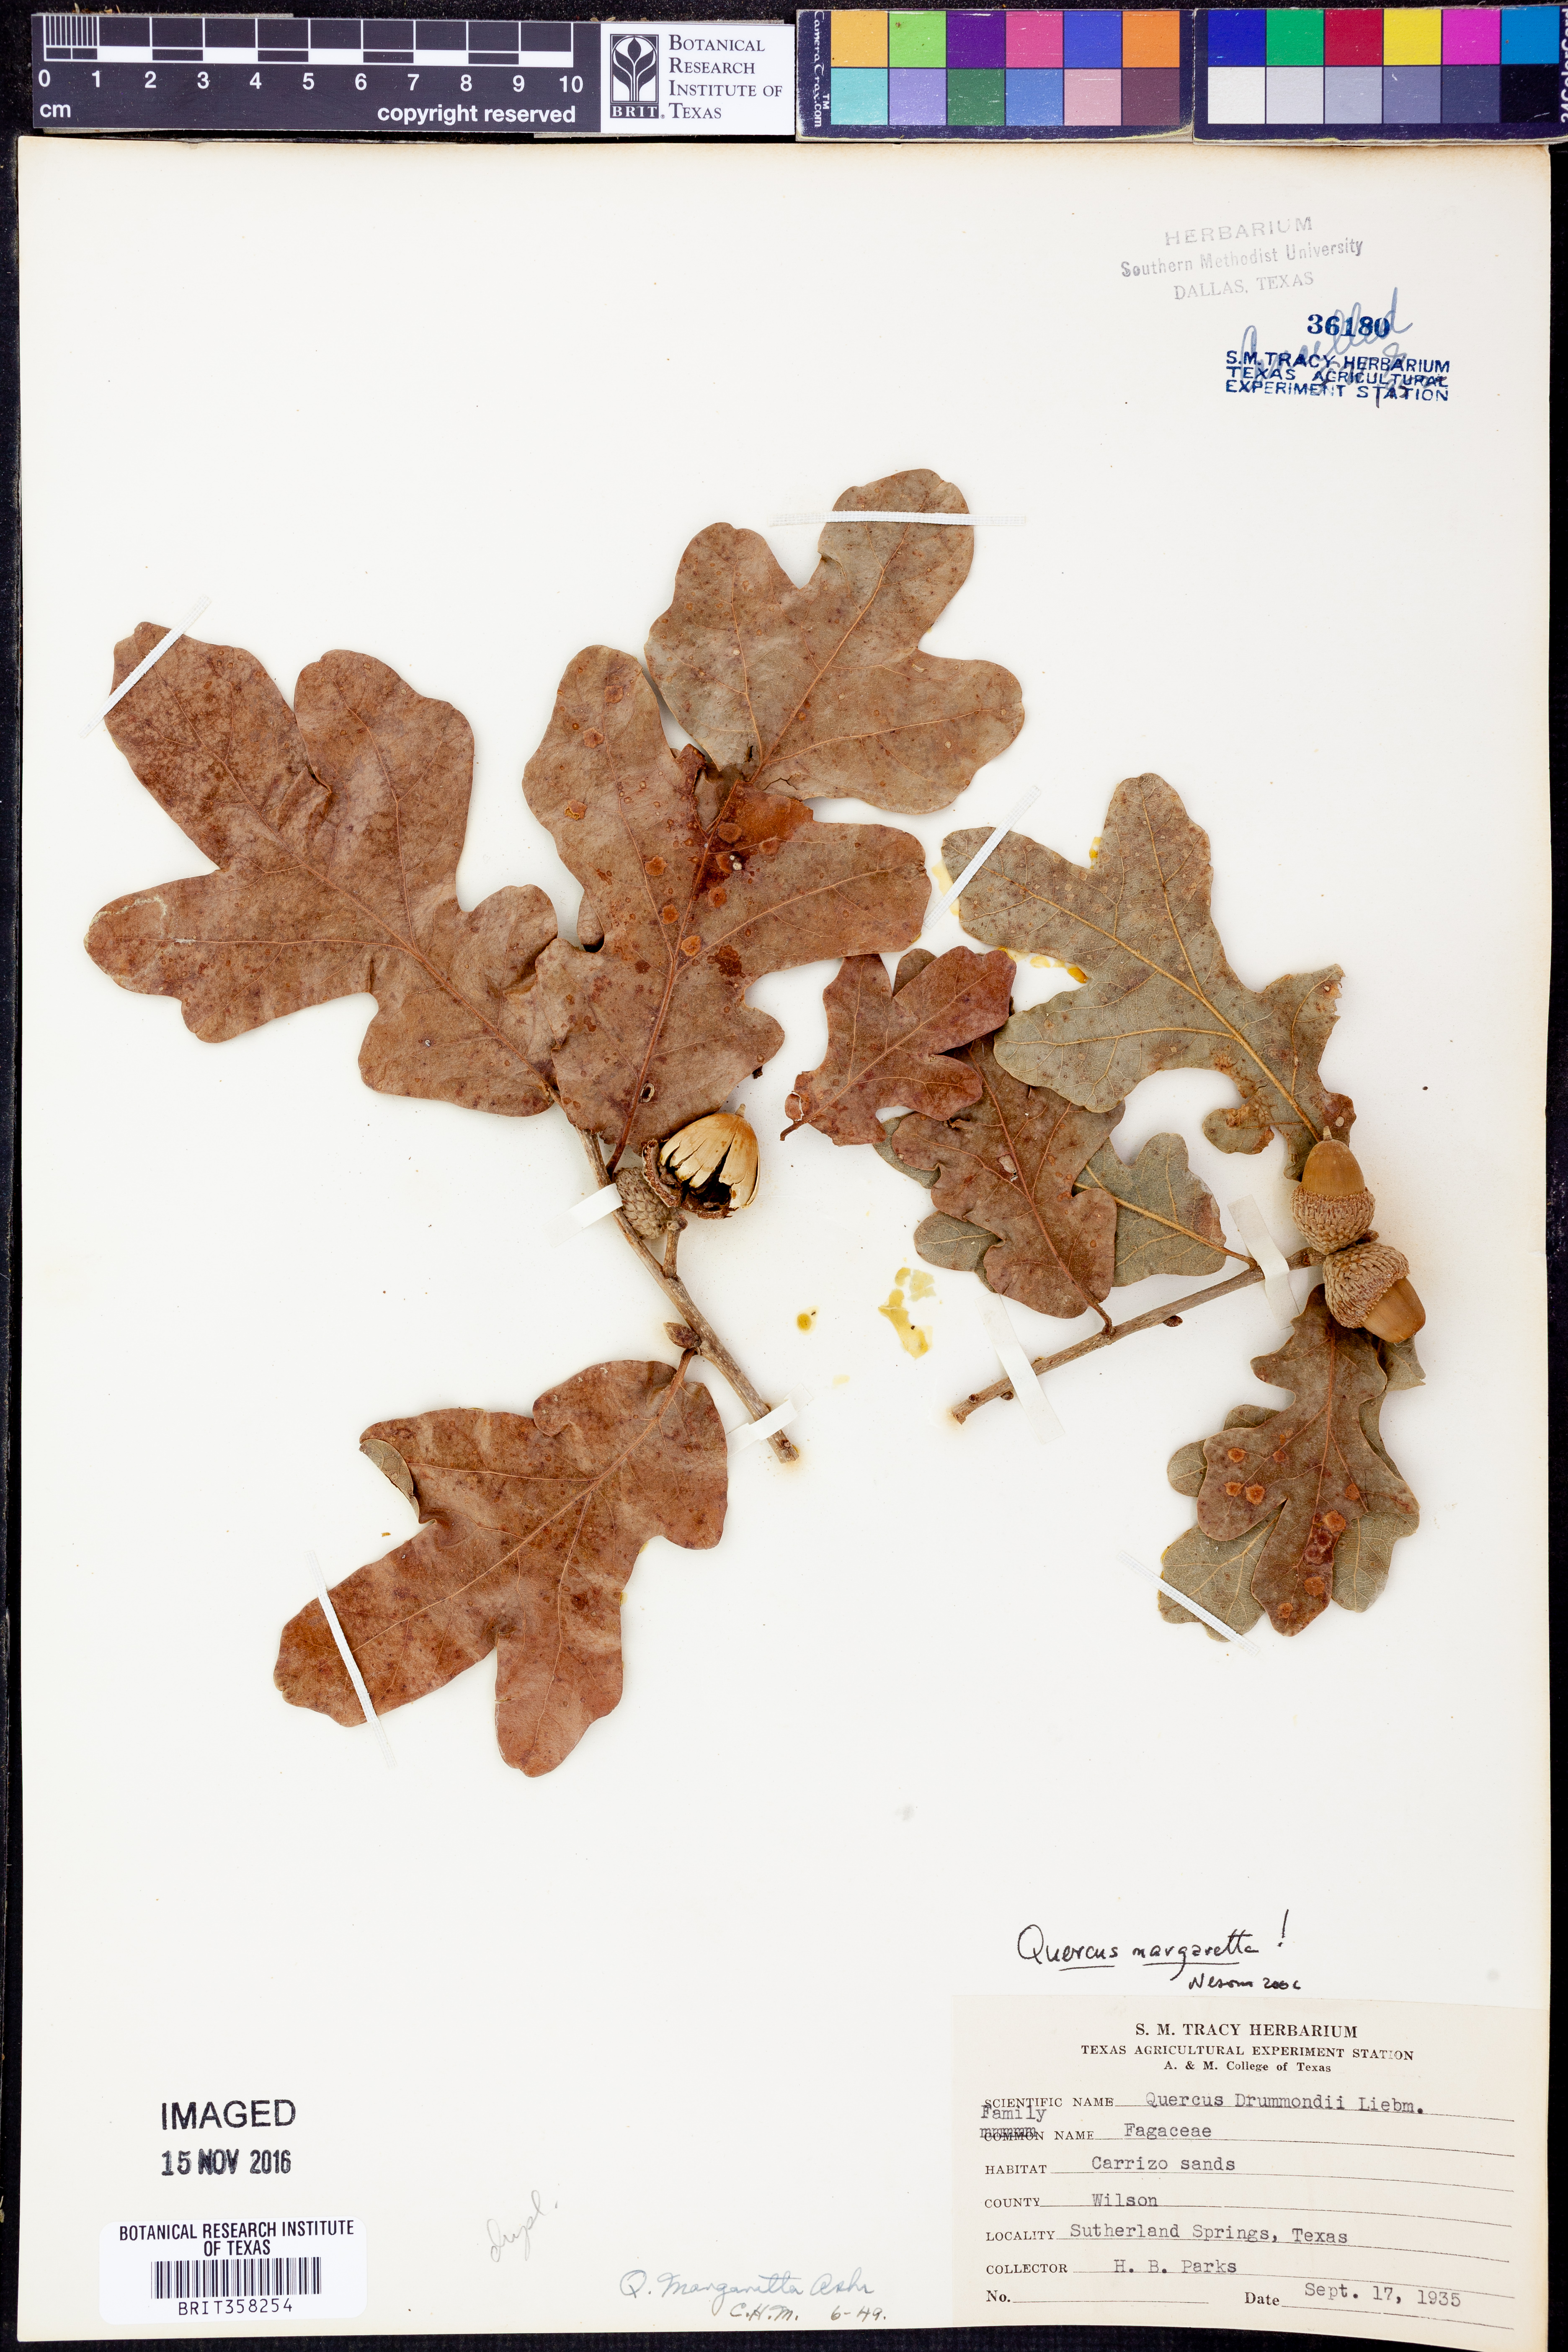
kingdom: Plantae
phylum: Tracheophyta
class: Magnoliopsida
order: Fagales
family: Fagaceae
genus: Quercus
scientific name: Quercus margaretta
